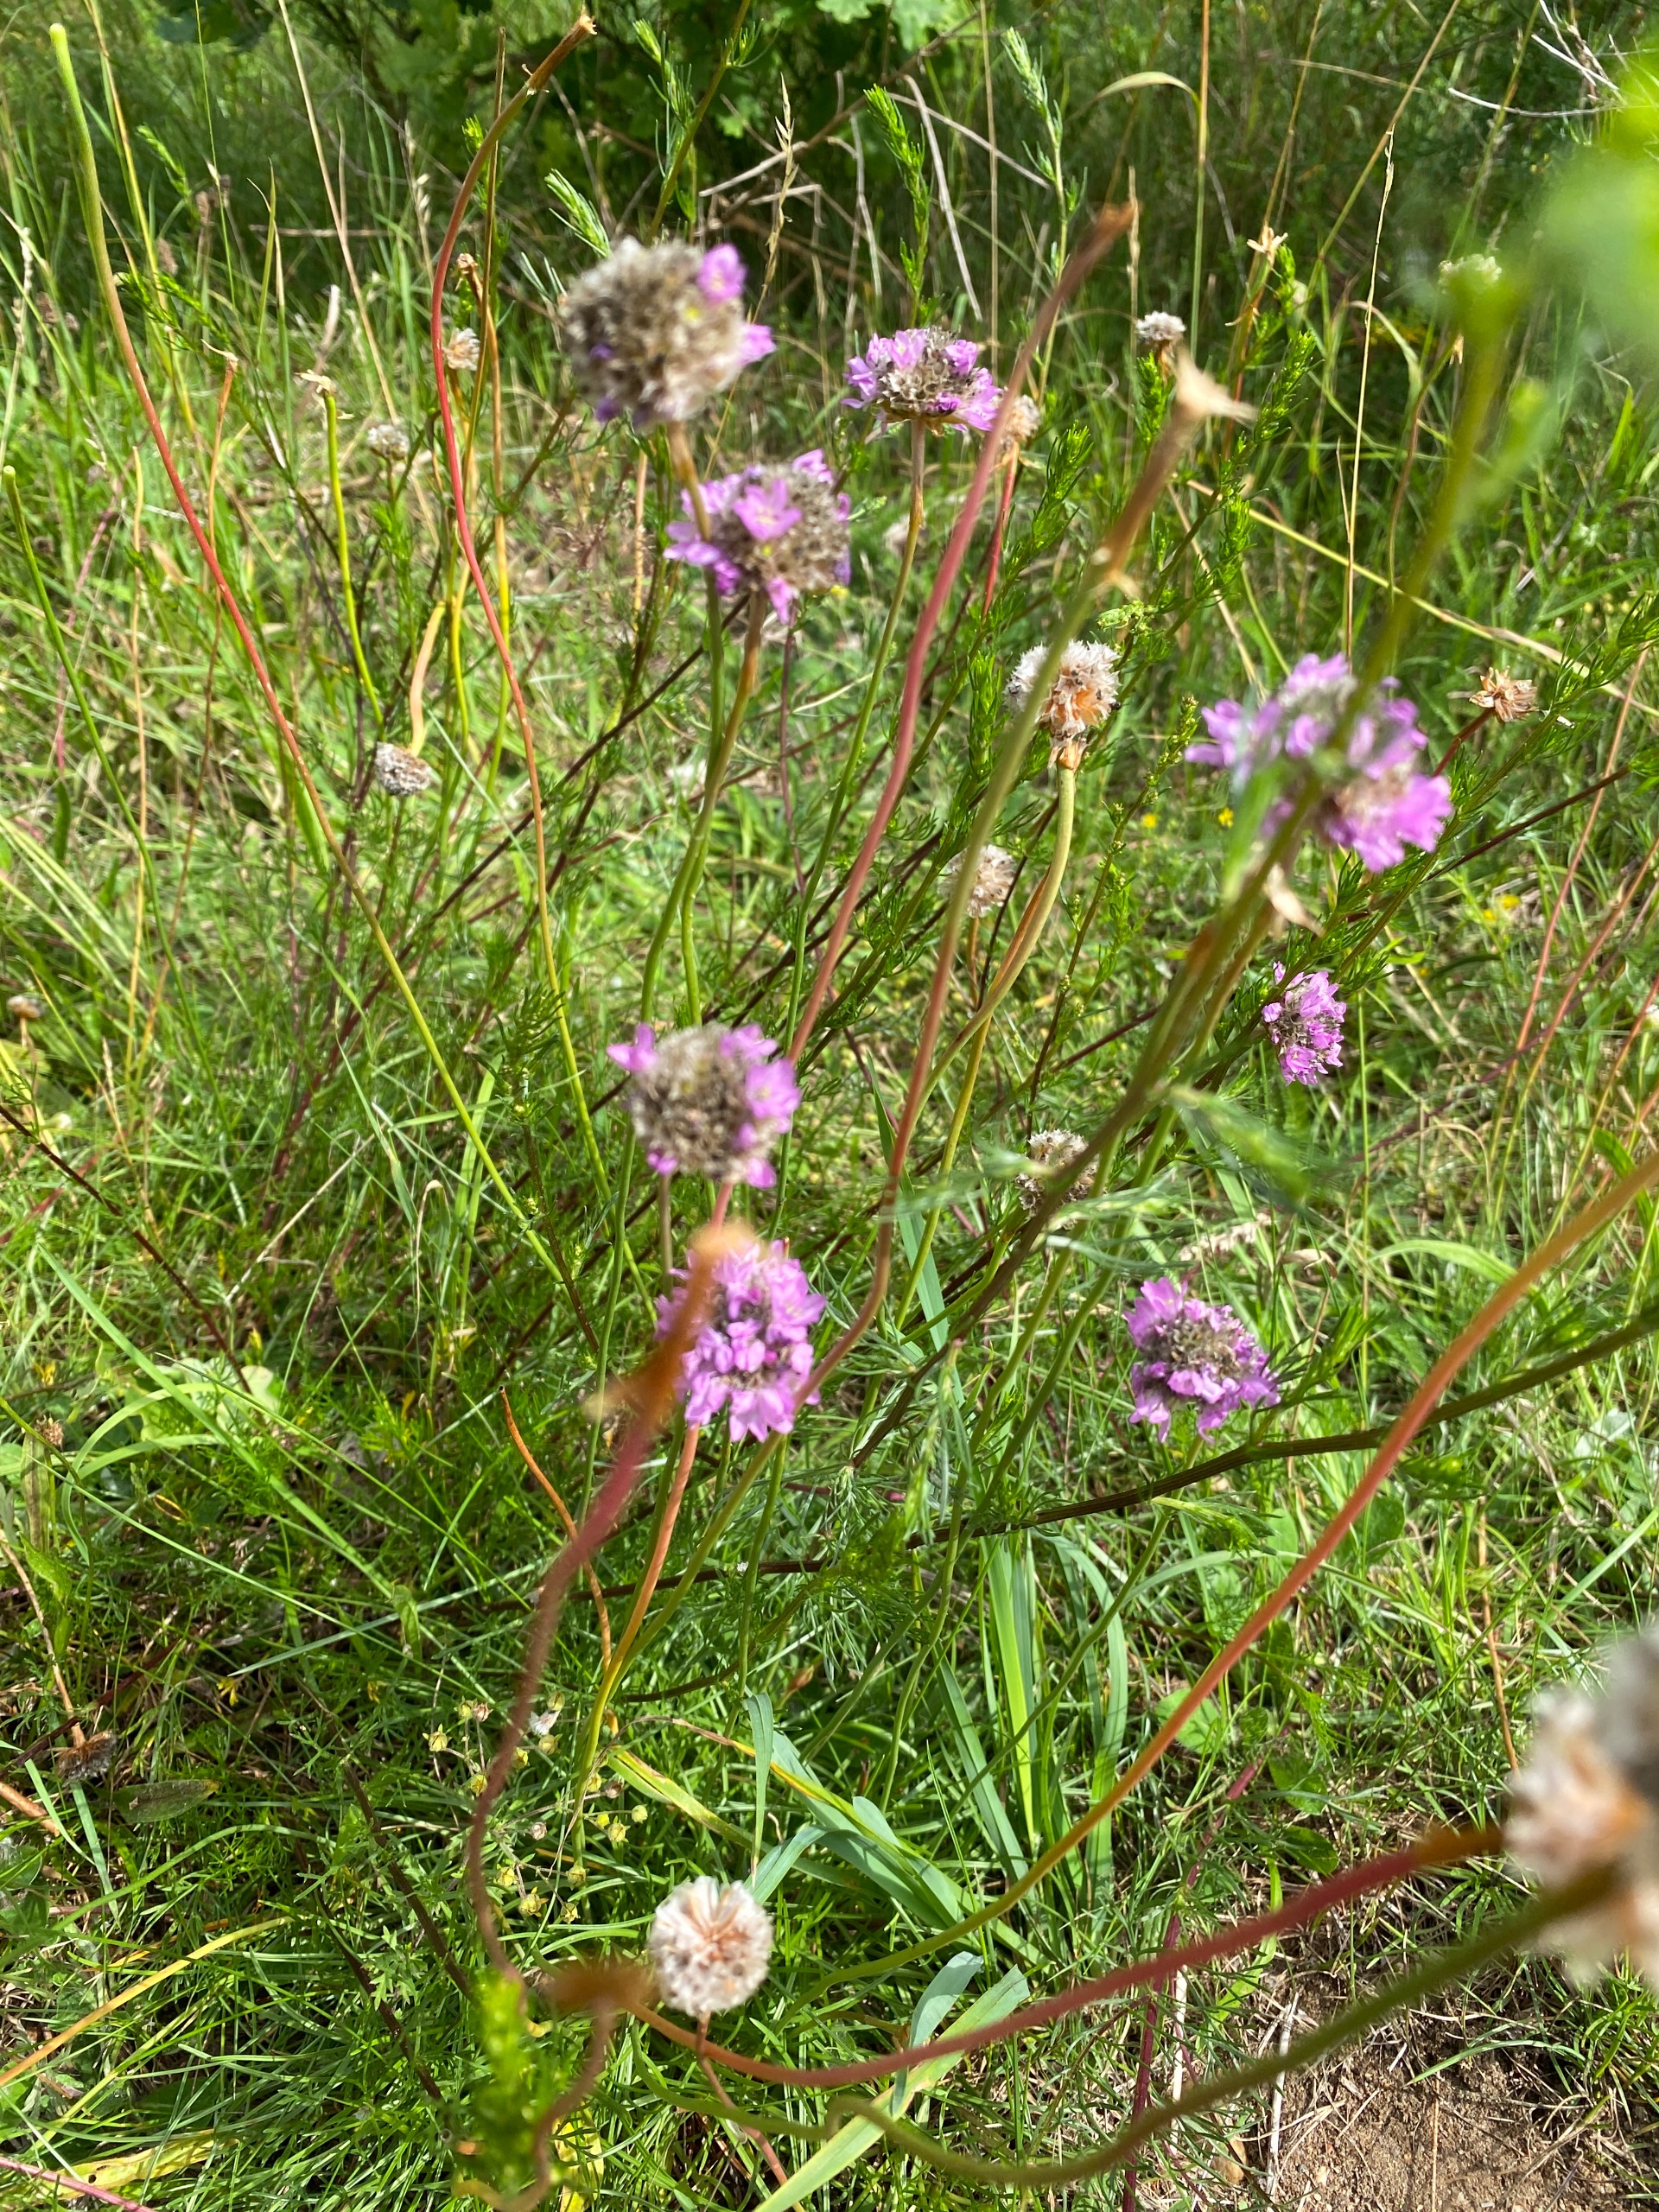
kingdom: Plantae
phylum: Tracheophyta
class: Magnoliopsida
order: Caryophyllales
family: Plumbaginaceae
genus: Armeria
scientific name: Armeria maritima
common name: Engelskgræs
